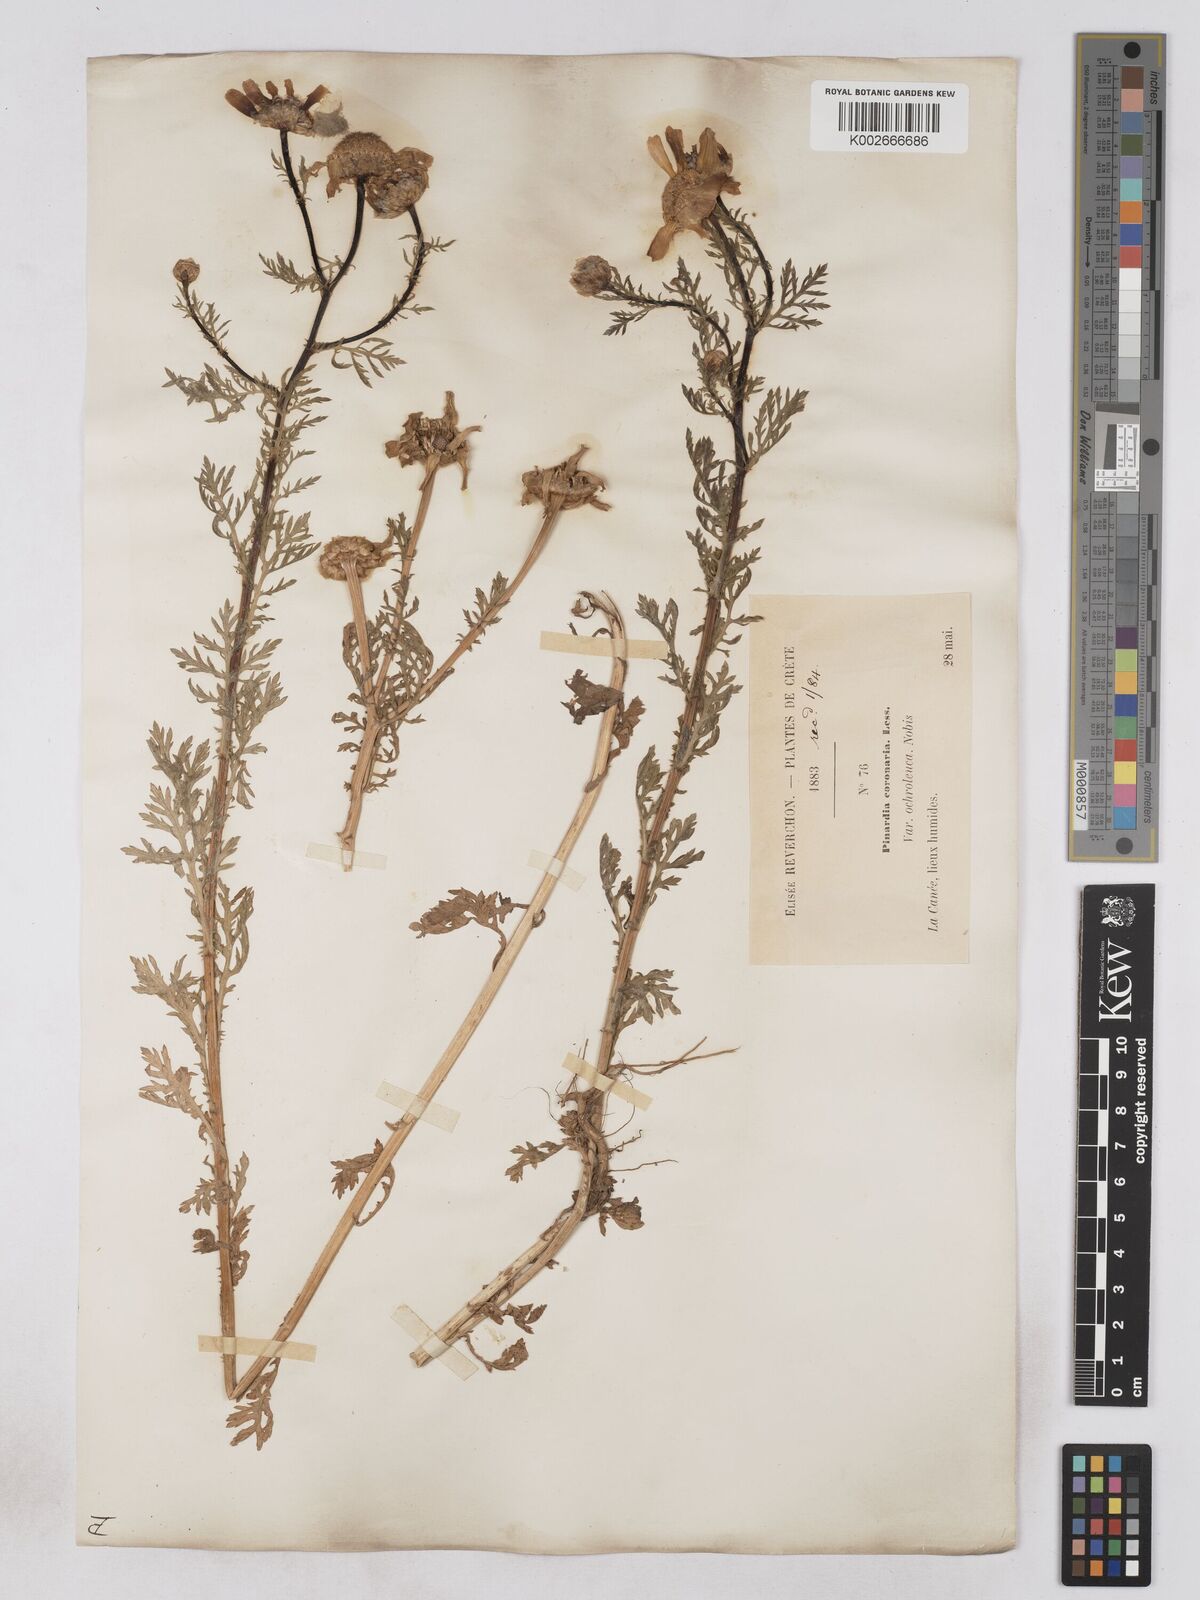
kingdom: Plantae
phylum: Tracheophyta
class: Magnoliopsida
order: Asterales
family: Asteraceae
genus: Glebionis
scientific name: Glebionis coronaria
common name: Crowndaisy
